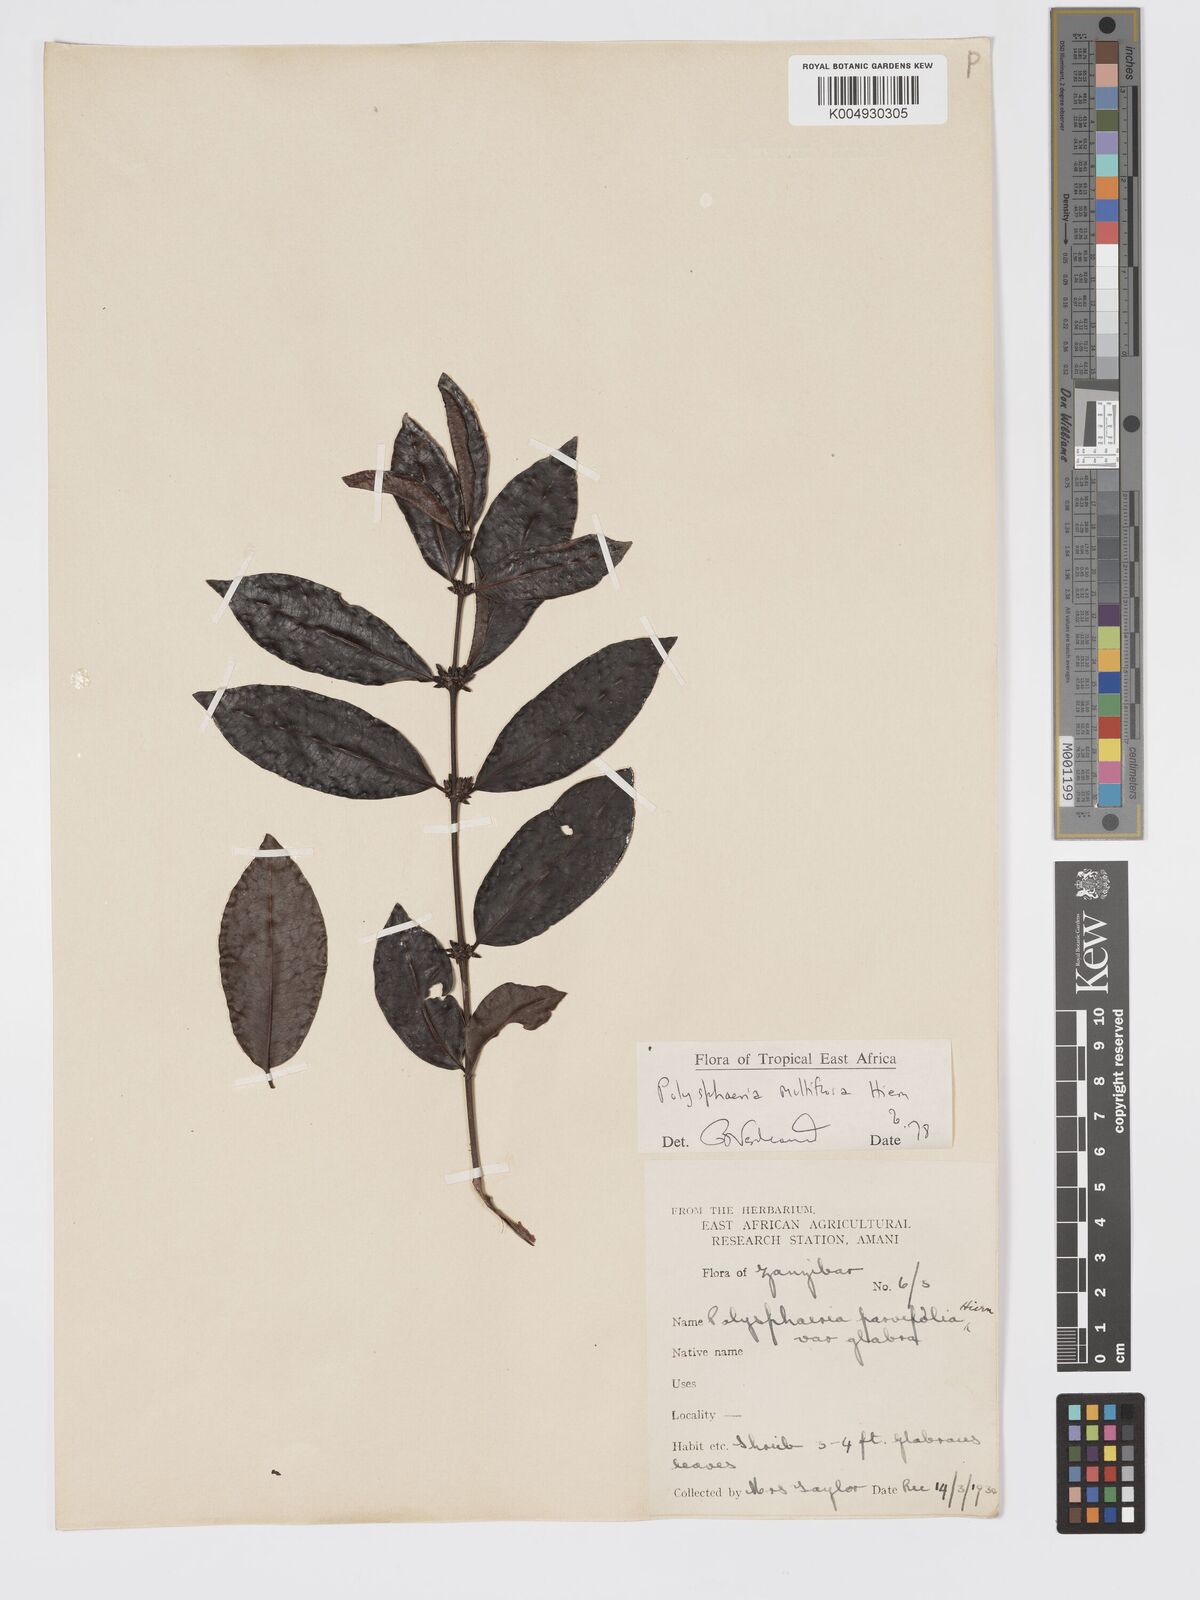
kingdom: Plantae
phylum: Tracheophyta
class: Magnoliopsida
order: Gentianales
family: Rubiaceae
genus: Polysphaeria
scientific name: Polysphaeria multiflora
